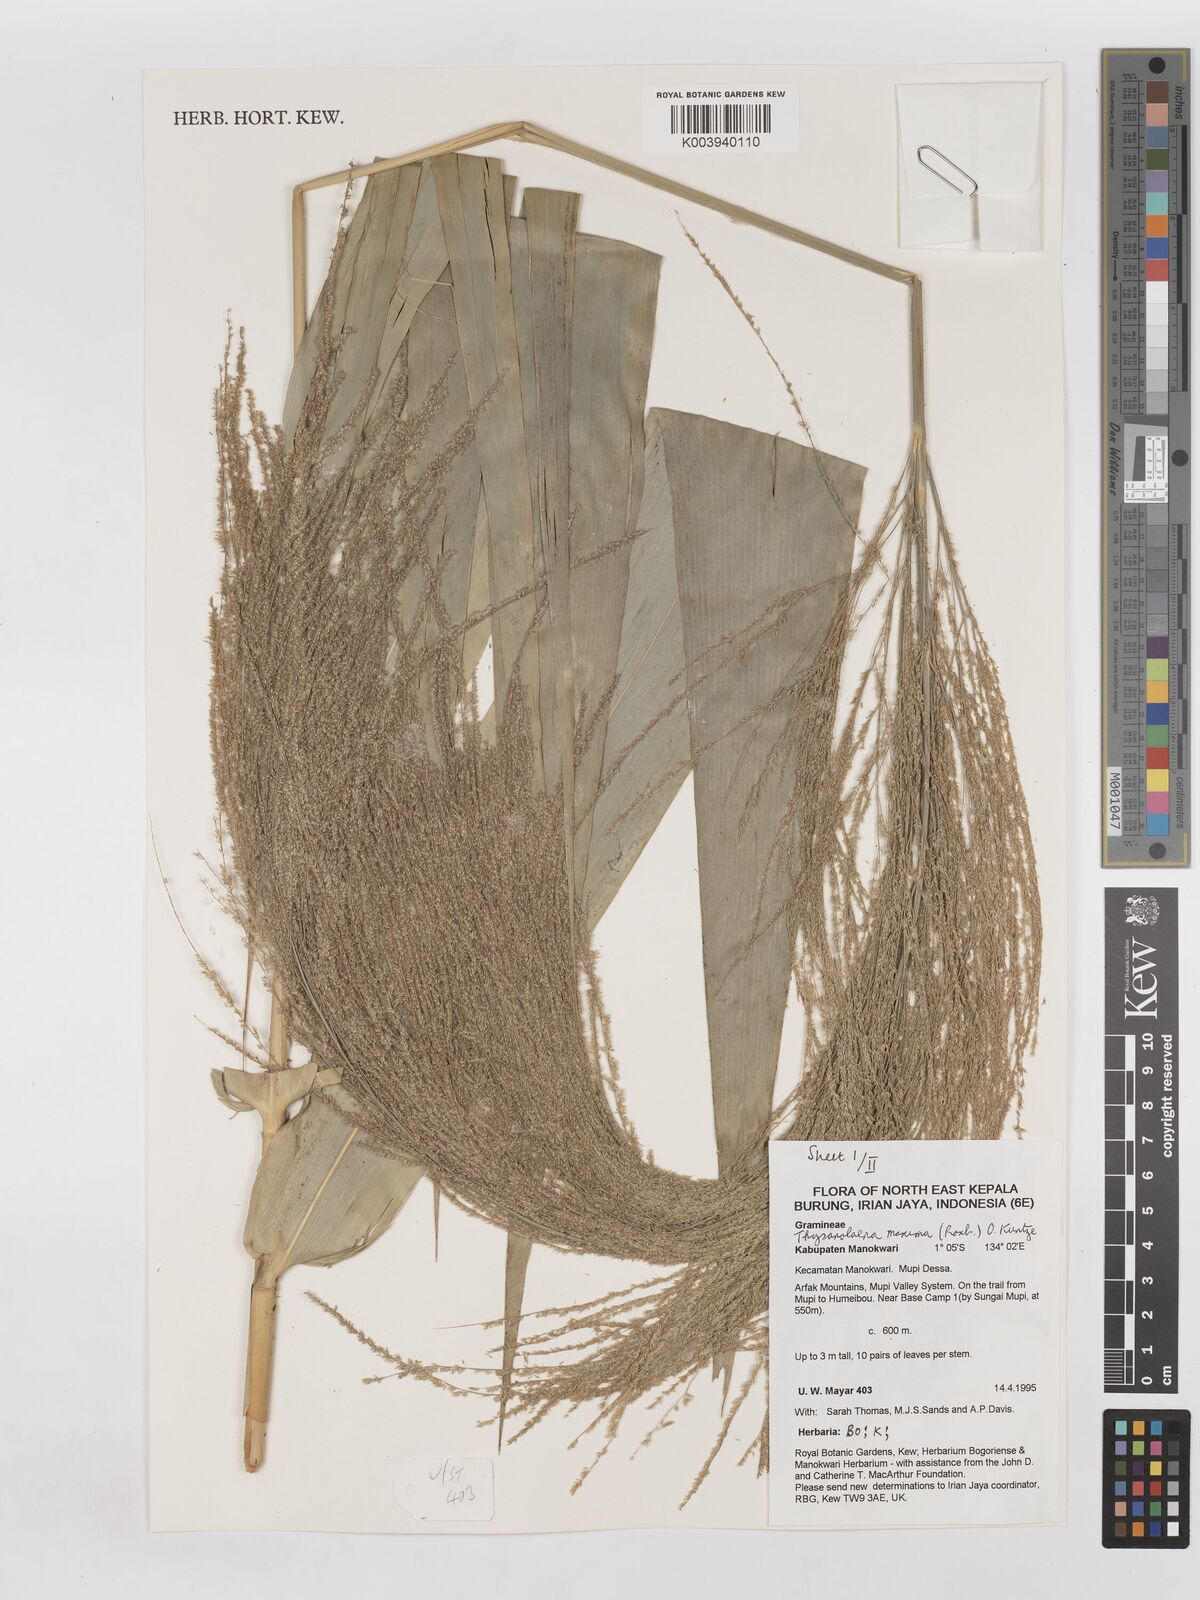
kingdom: Plantae
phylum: Tracheophyta
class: Liliopsida
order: Poales
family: Poaceae
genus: Thysanolaena
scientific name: Thysanolaena latifolia
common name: Tiger grass
